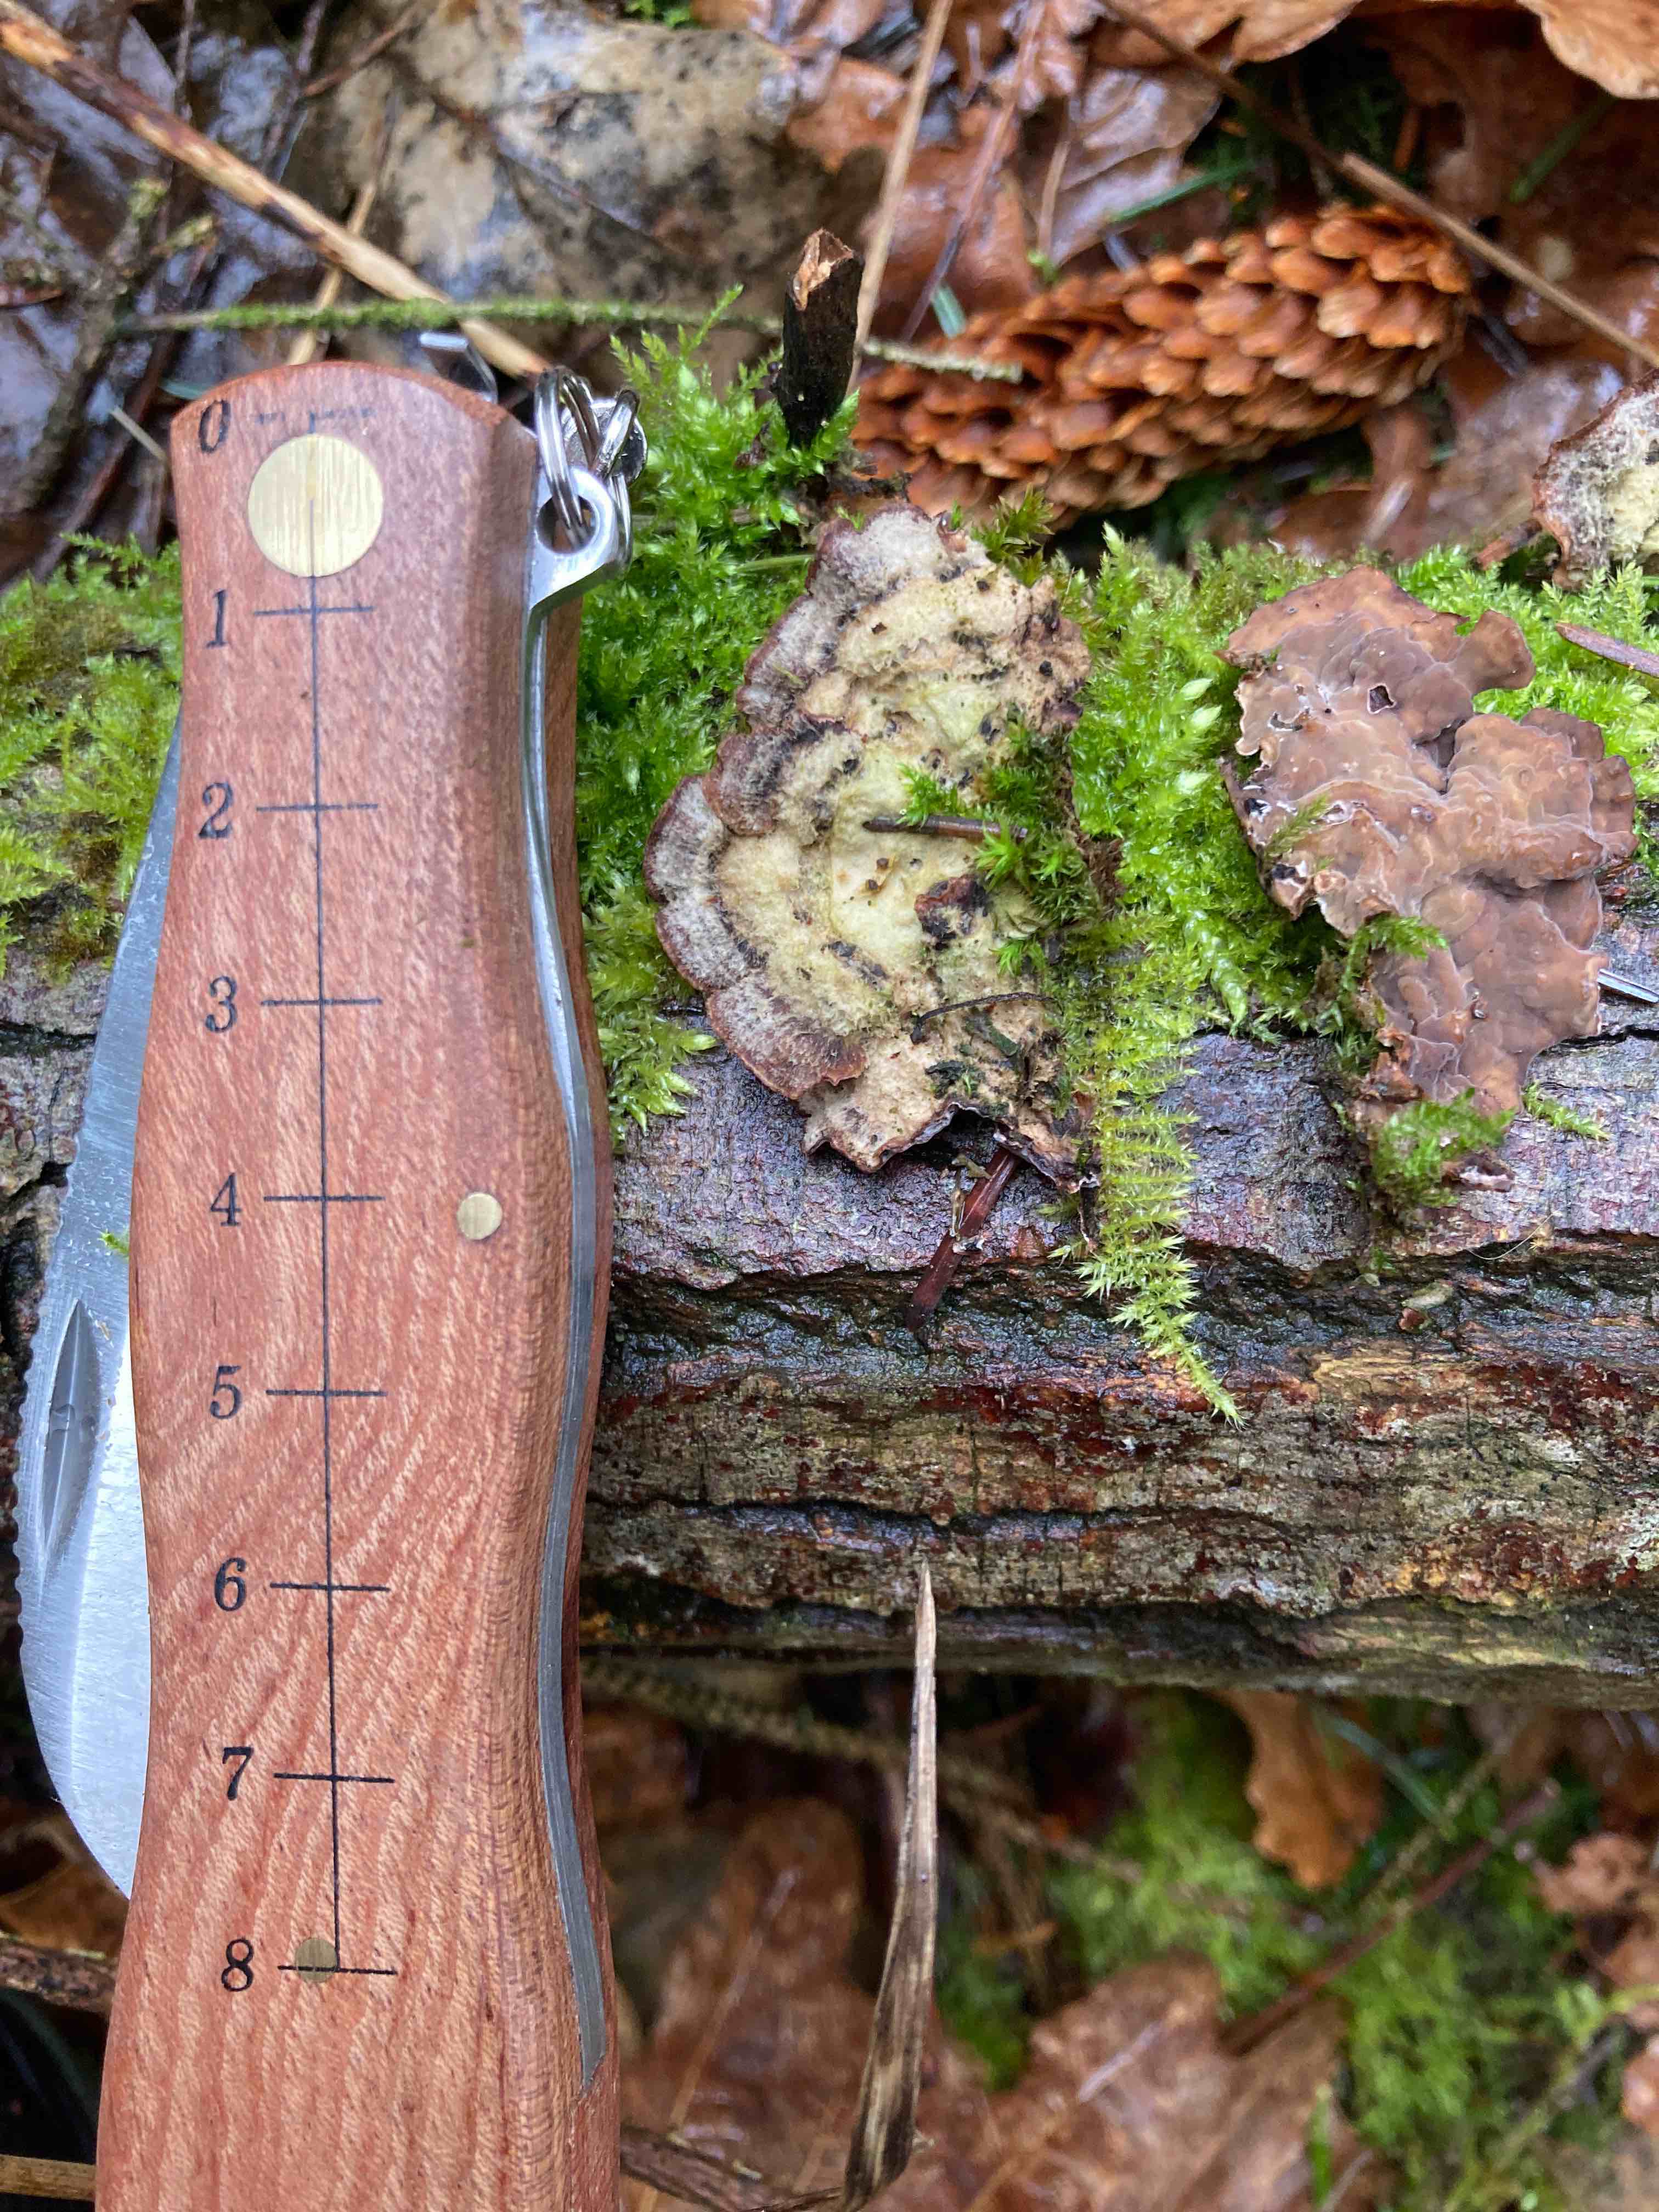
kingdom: Fungi
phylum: Basidiomycota
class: Agaricomycetes
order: Agaricales
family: Cyphellaceae
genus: Chondrostereum
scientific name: Chondrostereum purpureum
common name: purpurlædersvamp
